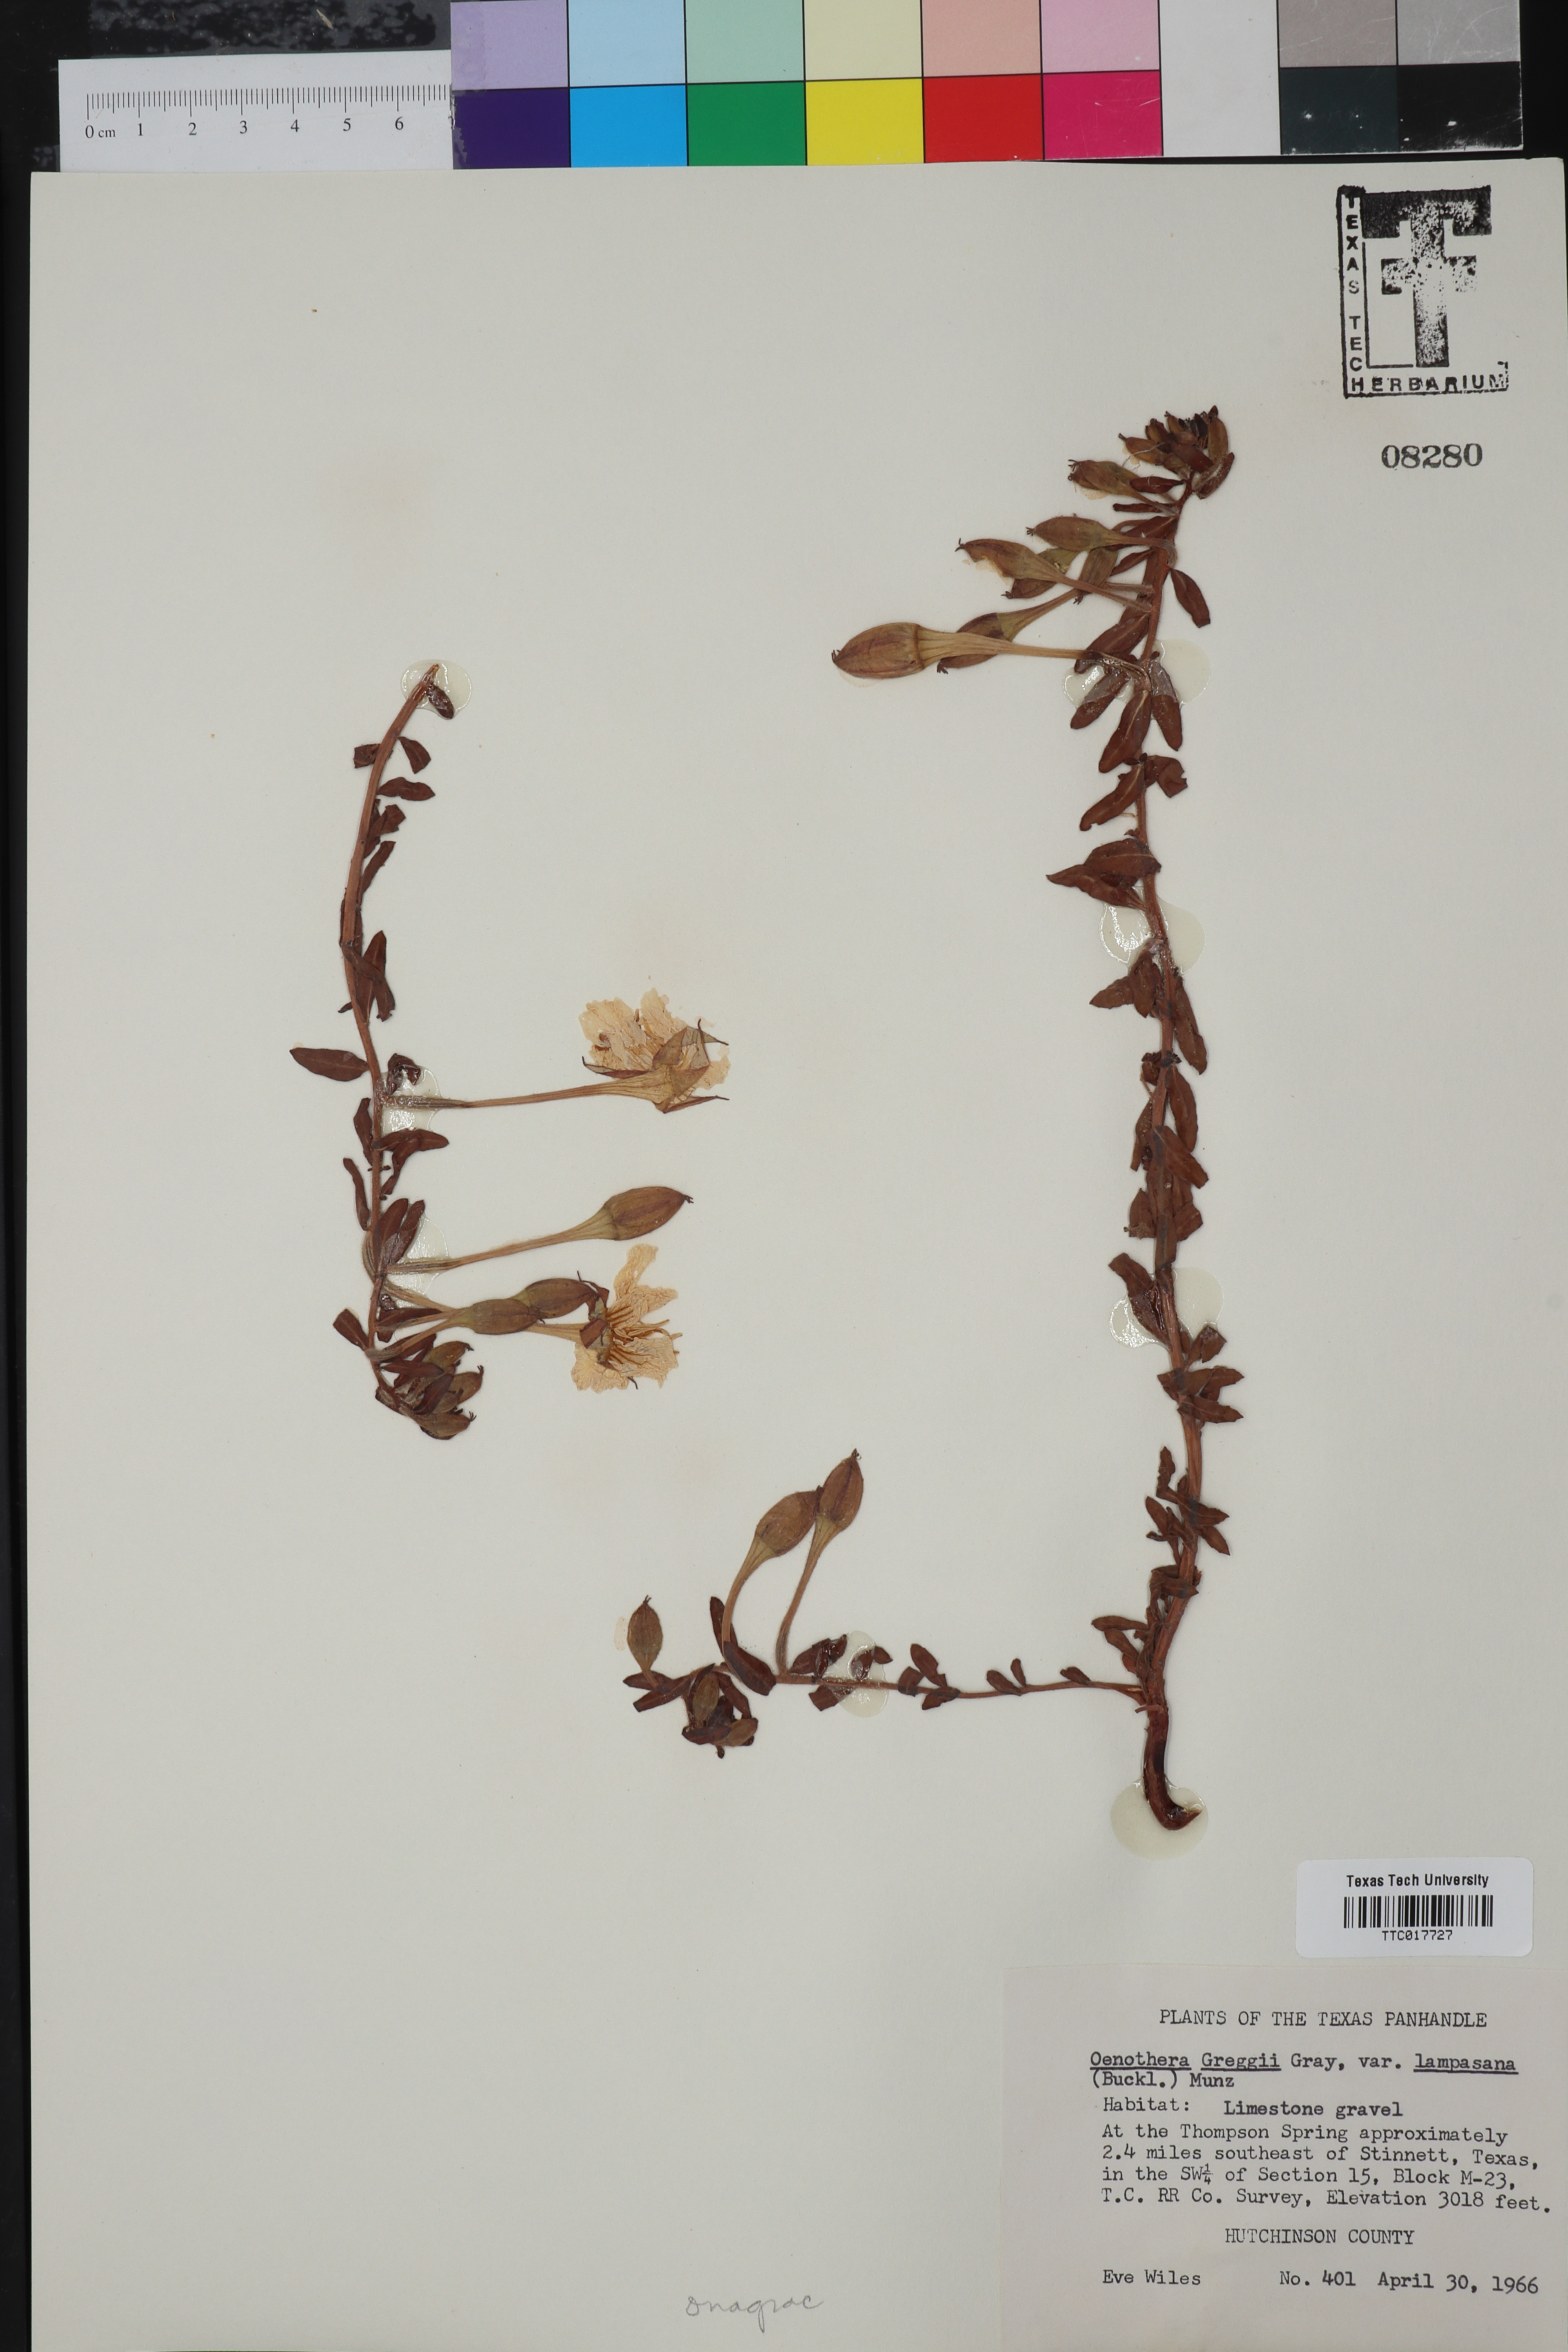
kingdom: Plantae
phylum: Tracheophyta
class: Magnoliopsida
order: Myrtales
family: Onagraceae
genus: Oenothera
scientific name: Oenothera hartwegii
